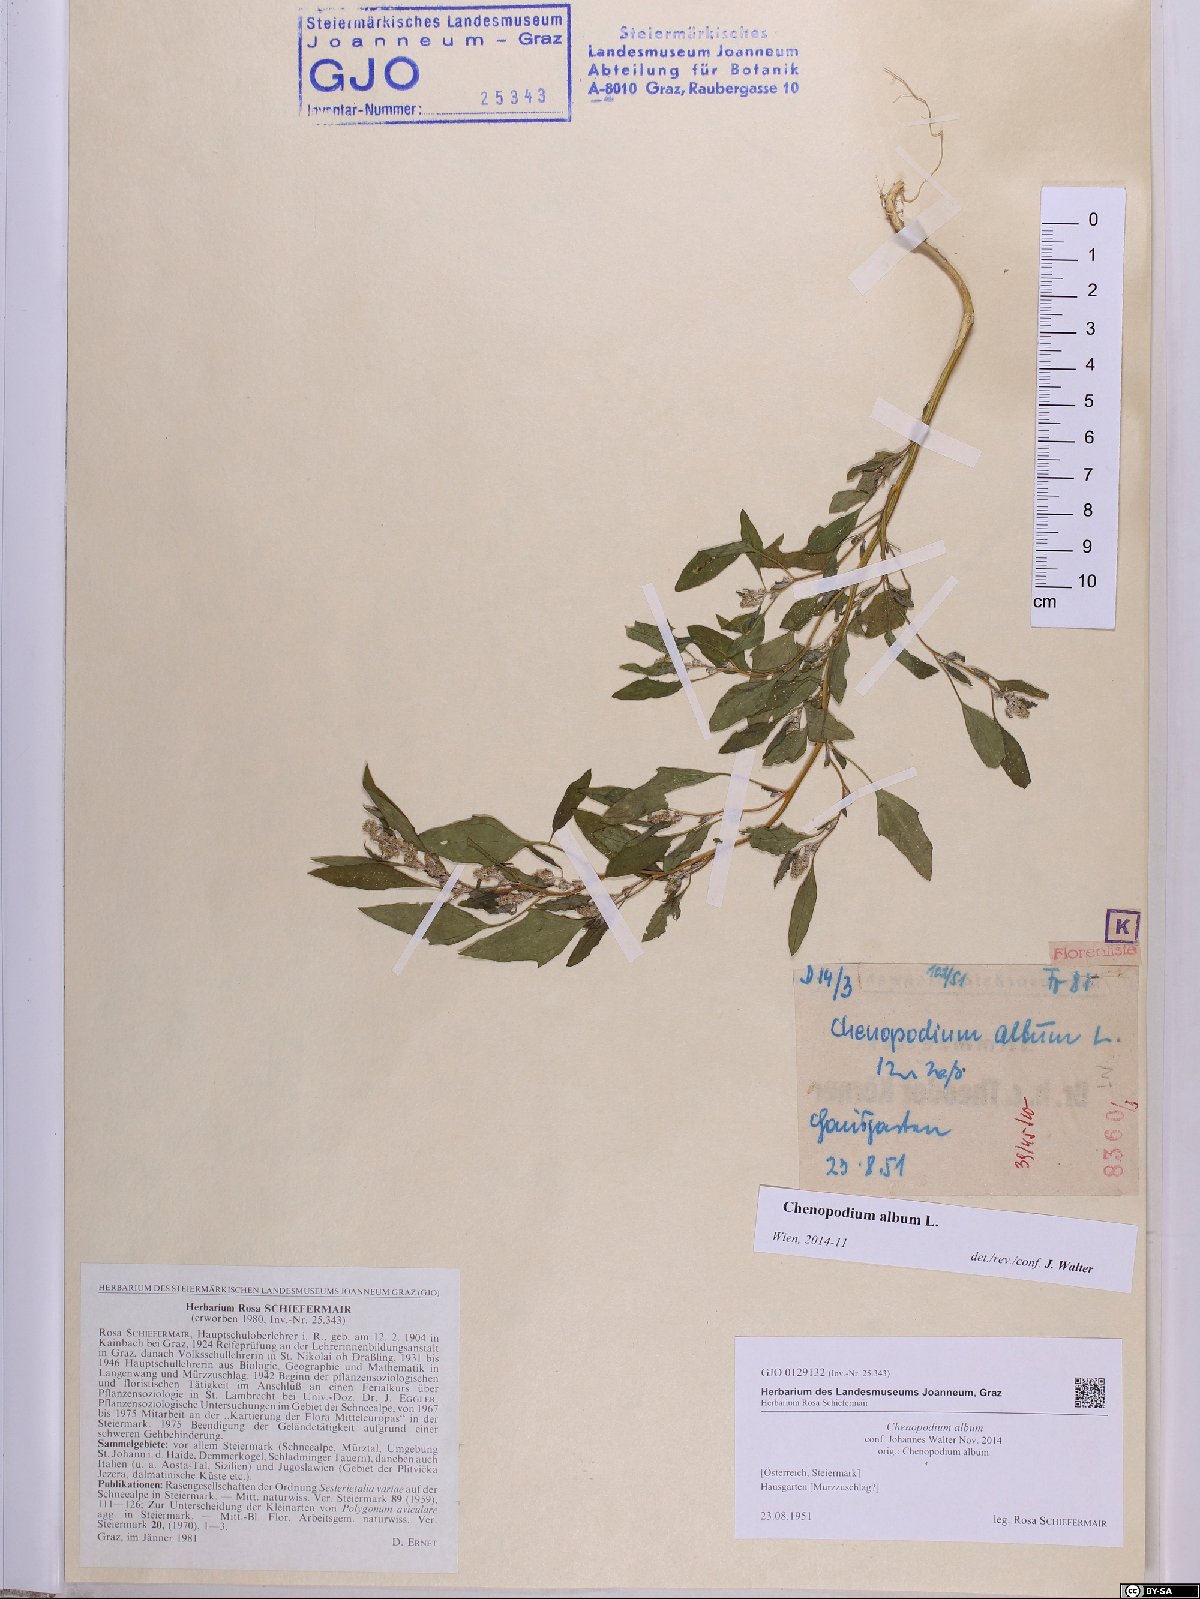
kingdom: Plantae
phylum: Tracheophyta
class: Magnoliopsida
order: Caryophyllales
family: Amaranthaceae
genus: Chenopodium
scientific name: Chenopodium album
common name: Fat-hen
